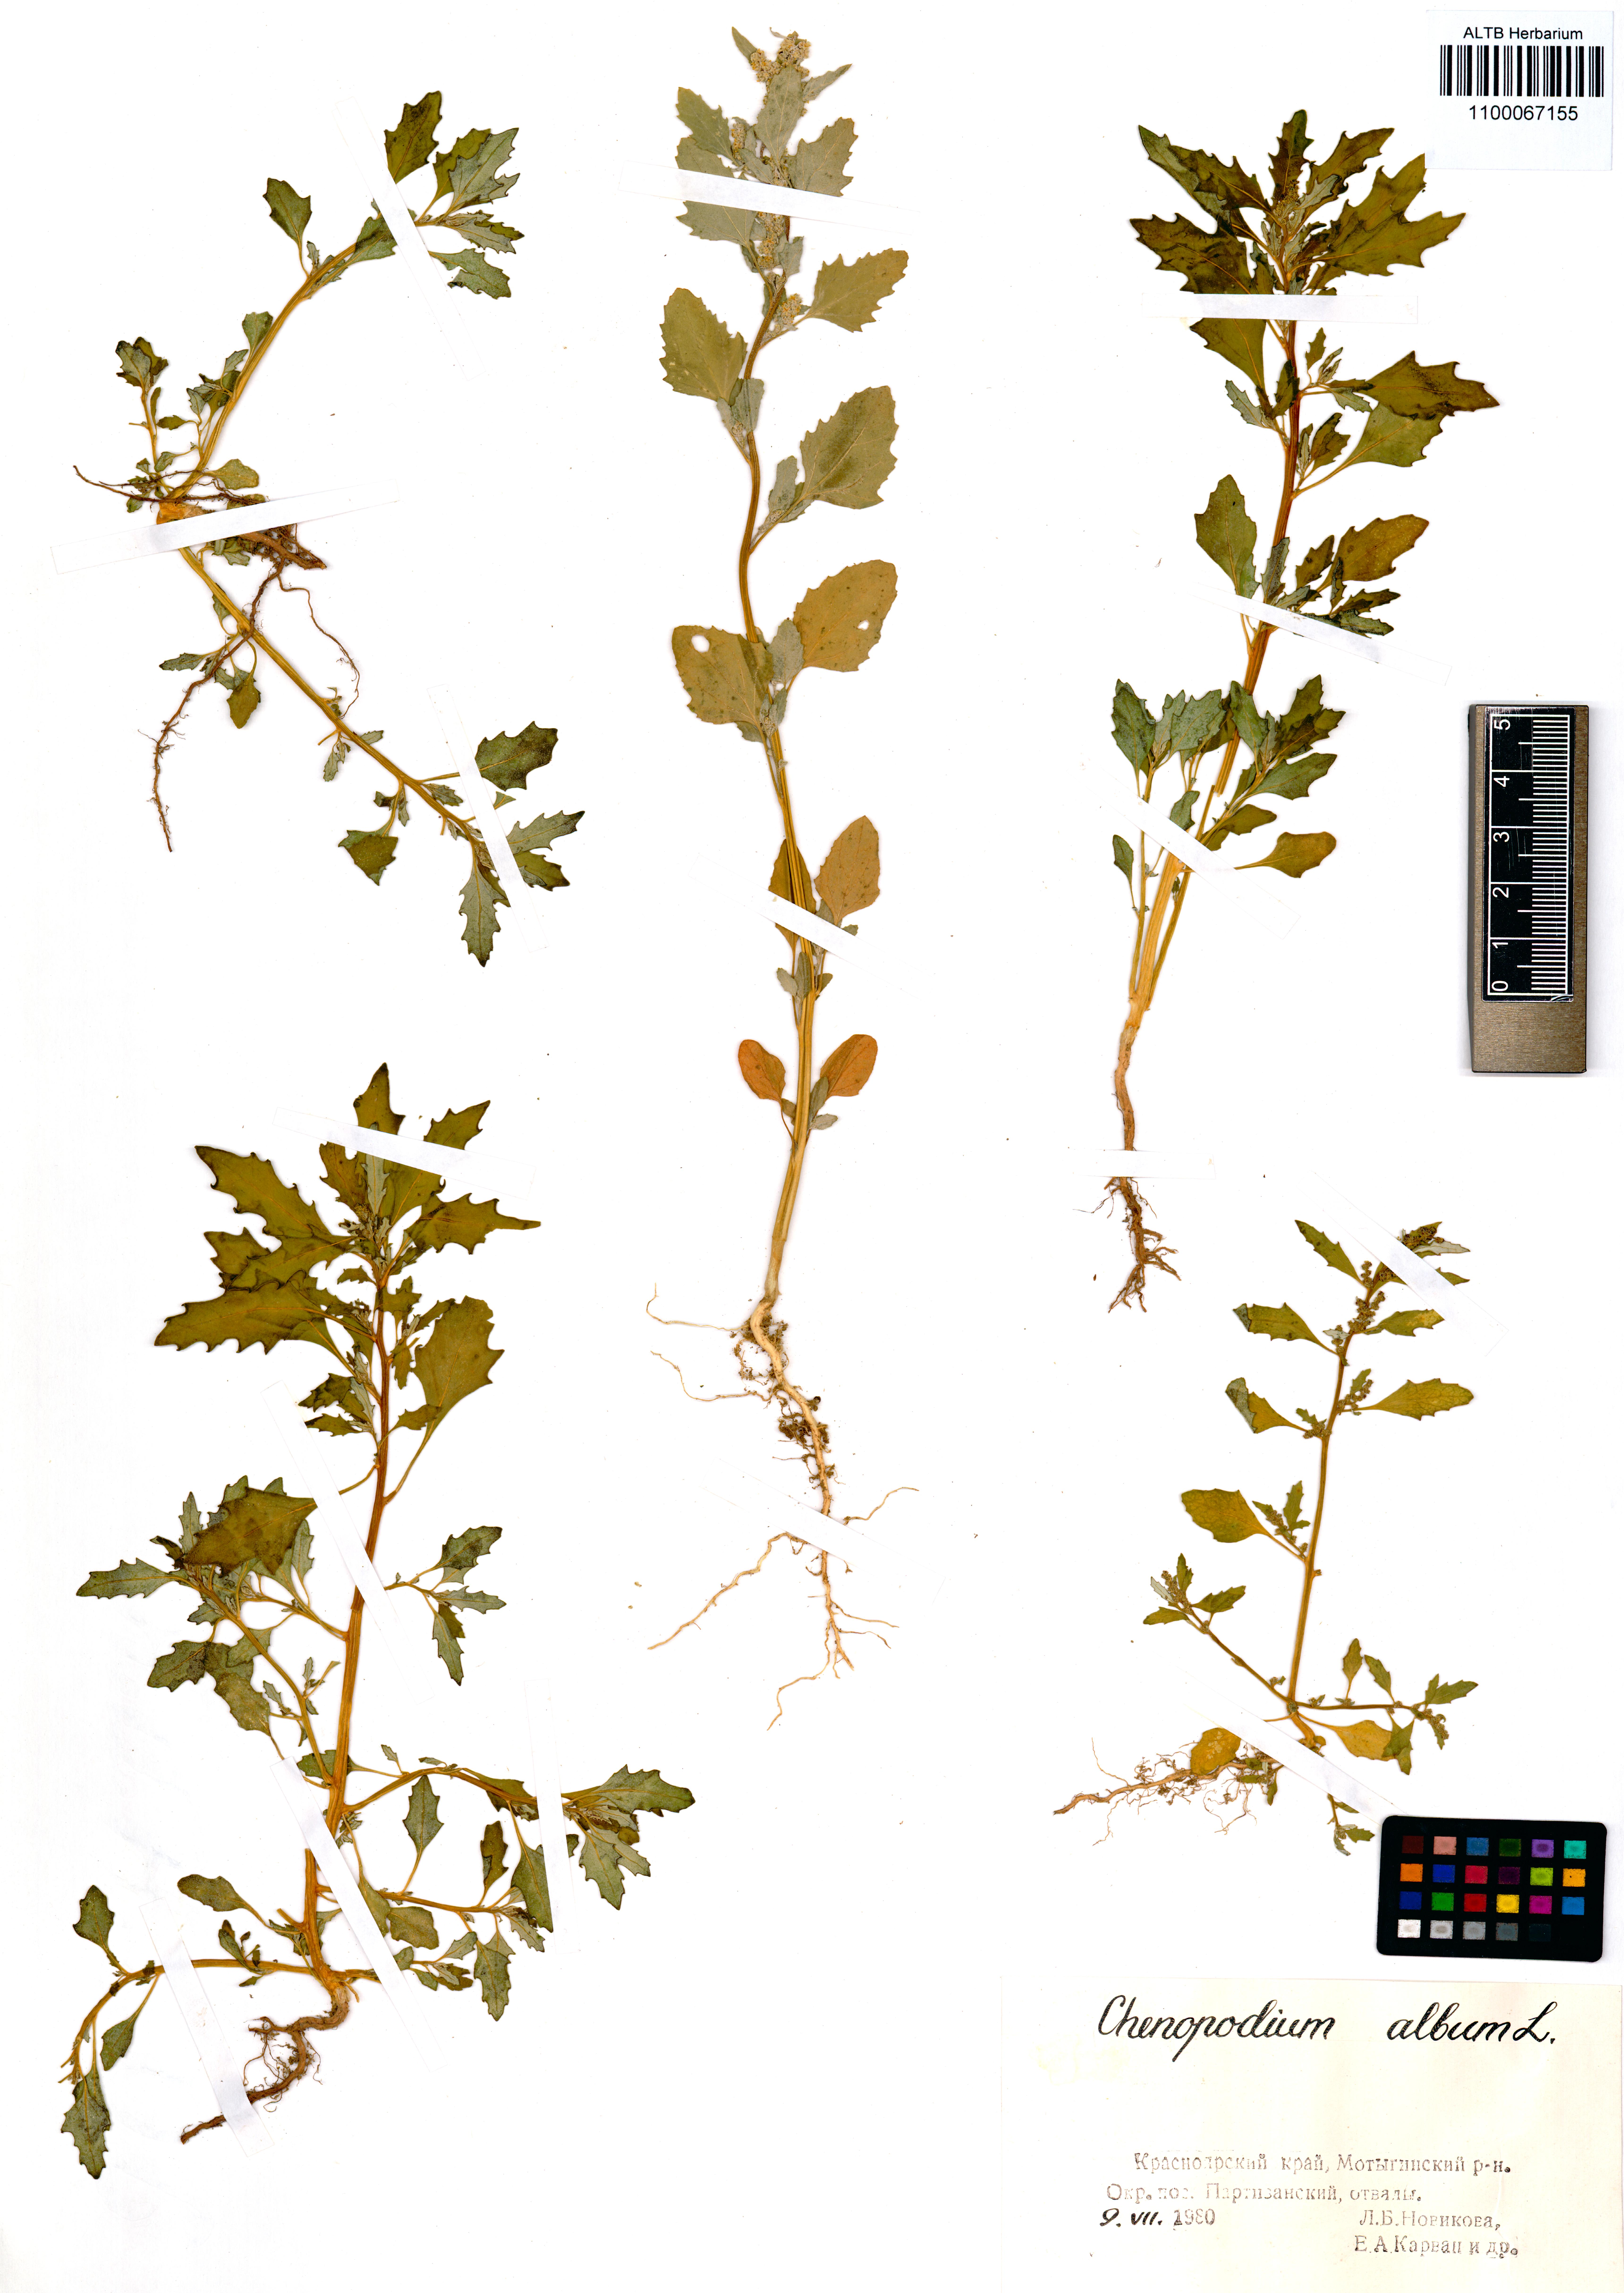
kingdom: Plantae
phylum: Tracheophyta
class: Magnoliopsida
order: Caryophyllales
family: Amaranthaceae
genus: Chenopodium
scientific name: Chenopodium album
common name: Fat-hen
